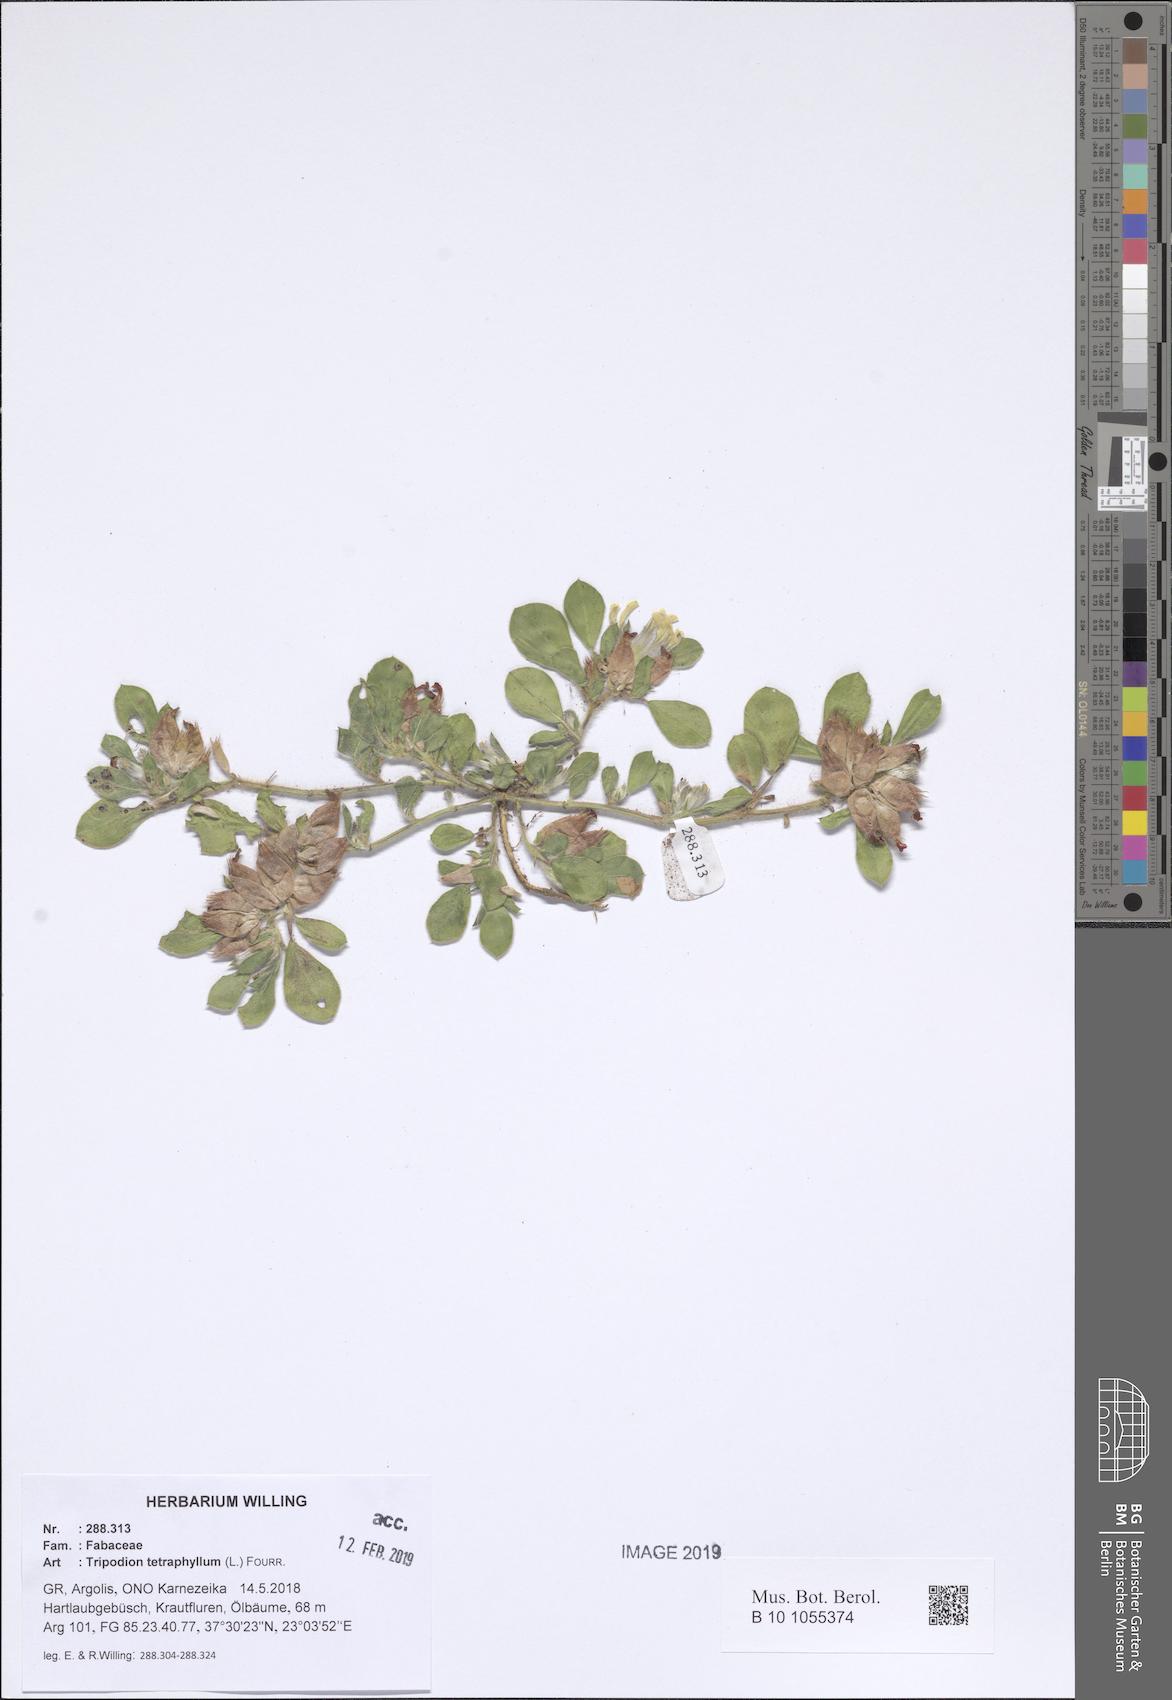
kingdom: Plantae
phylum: Tracheophyta
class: Magnoliopsida
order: Fabales
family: Fabaceae
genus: Tripodion
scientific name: Tripodion tetraphyllum
